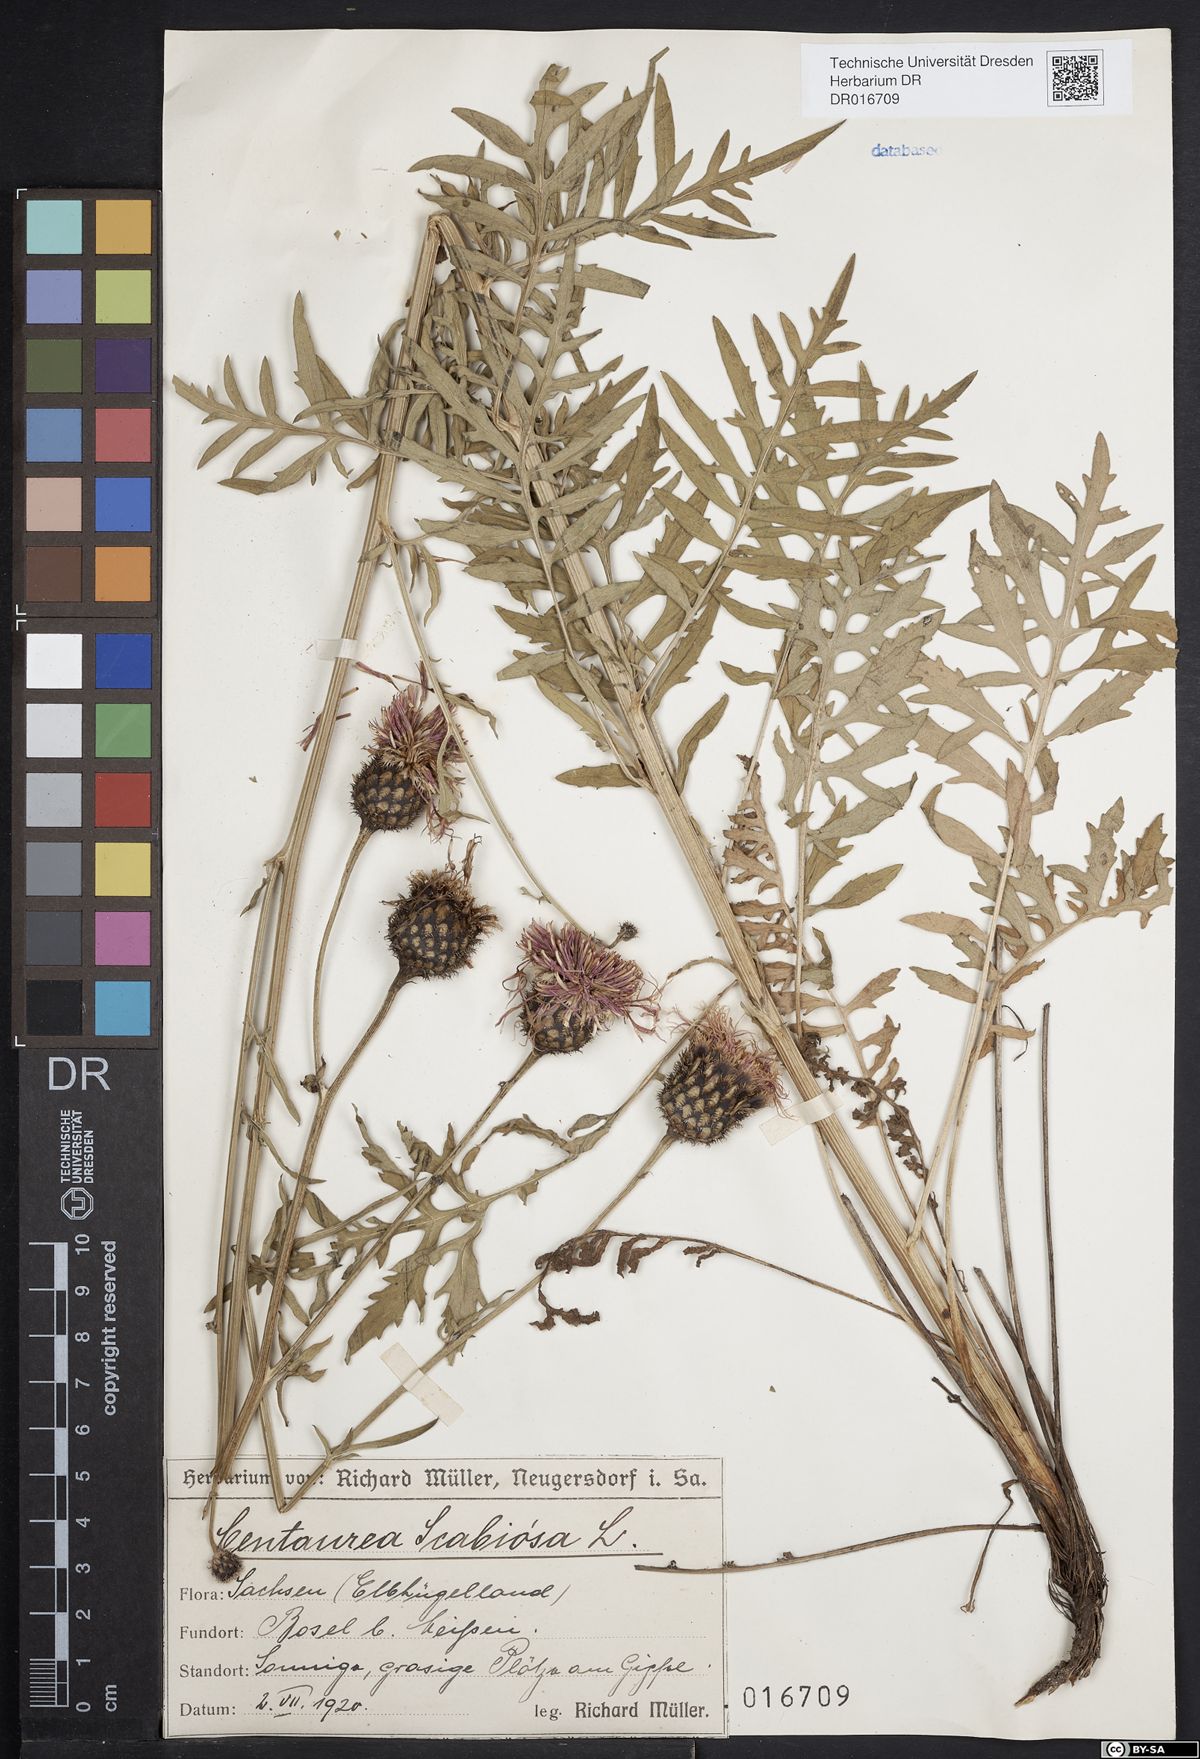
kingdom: Plantae
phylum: Tracheophyta
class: Magnoliopsida
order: Asterales
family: Asteraceae
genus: Centaurea
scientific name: Centaurea scabiosa
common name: Greater knapweed
